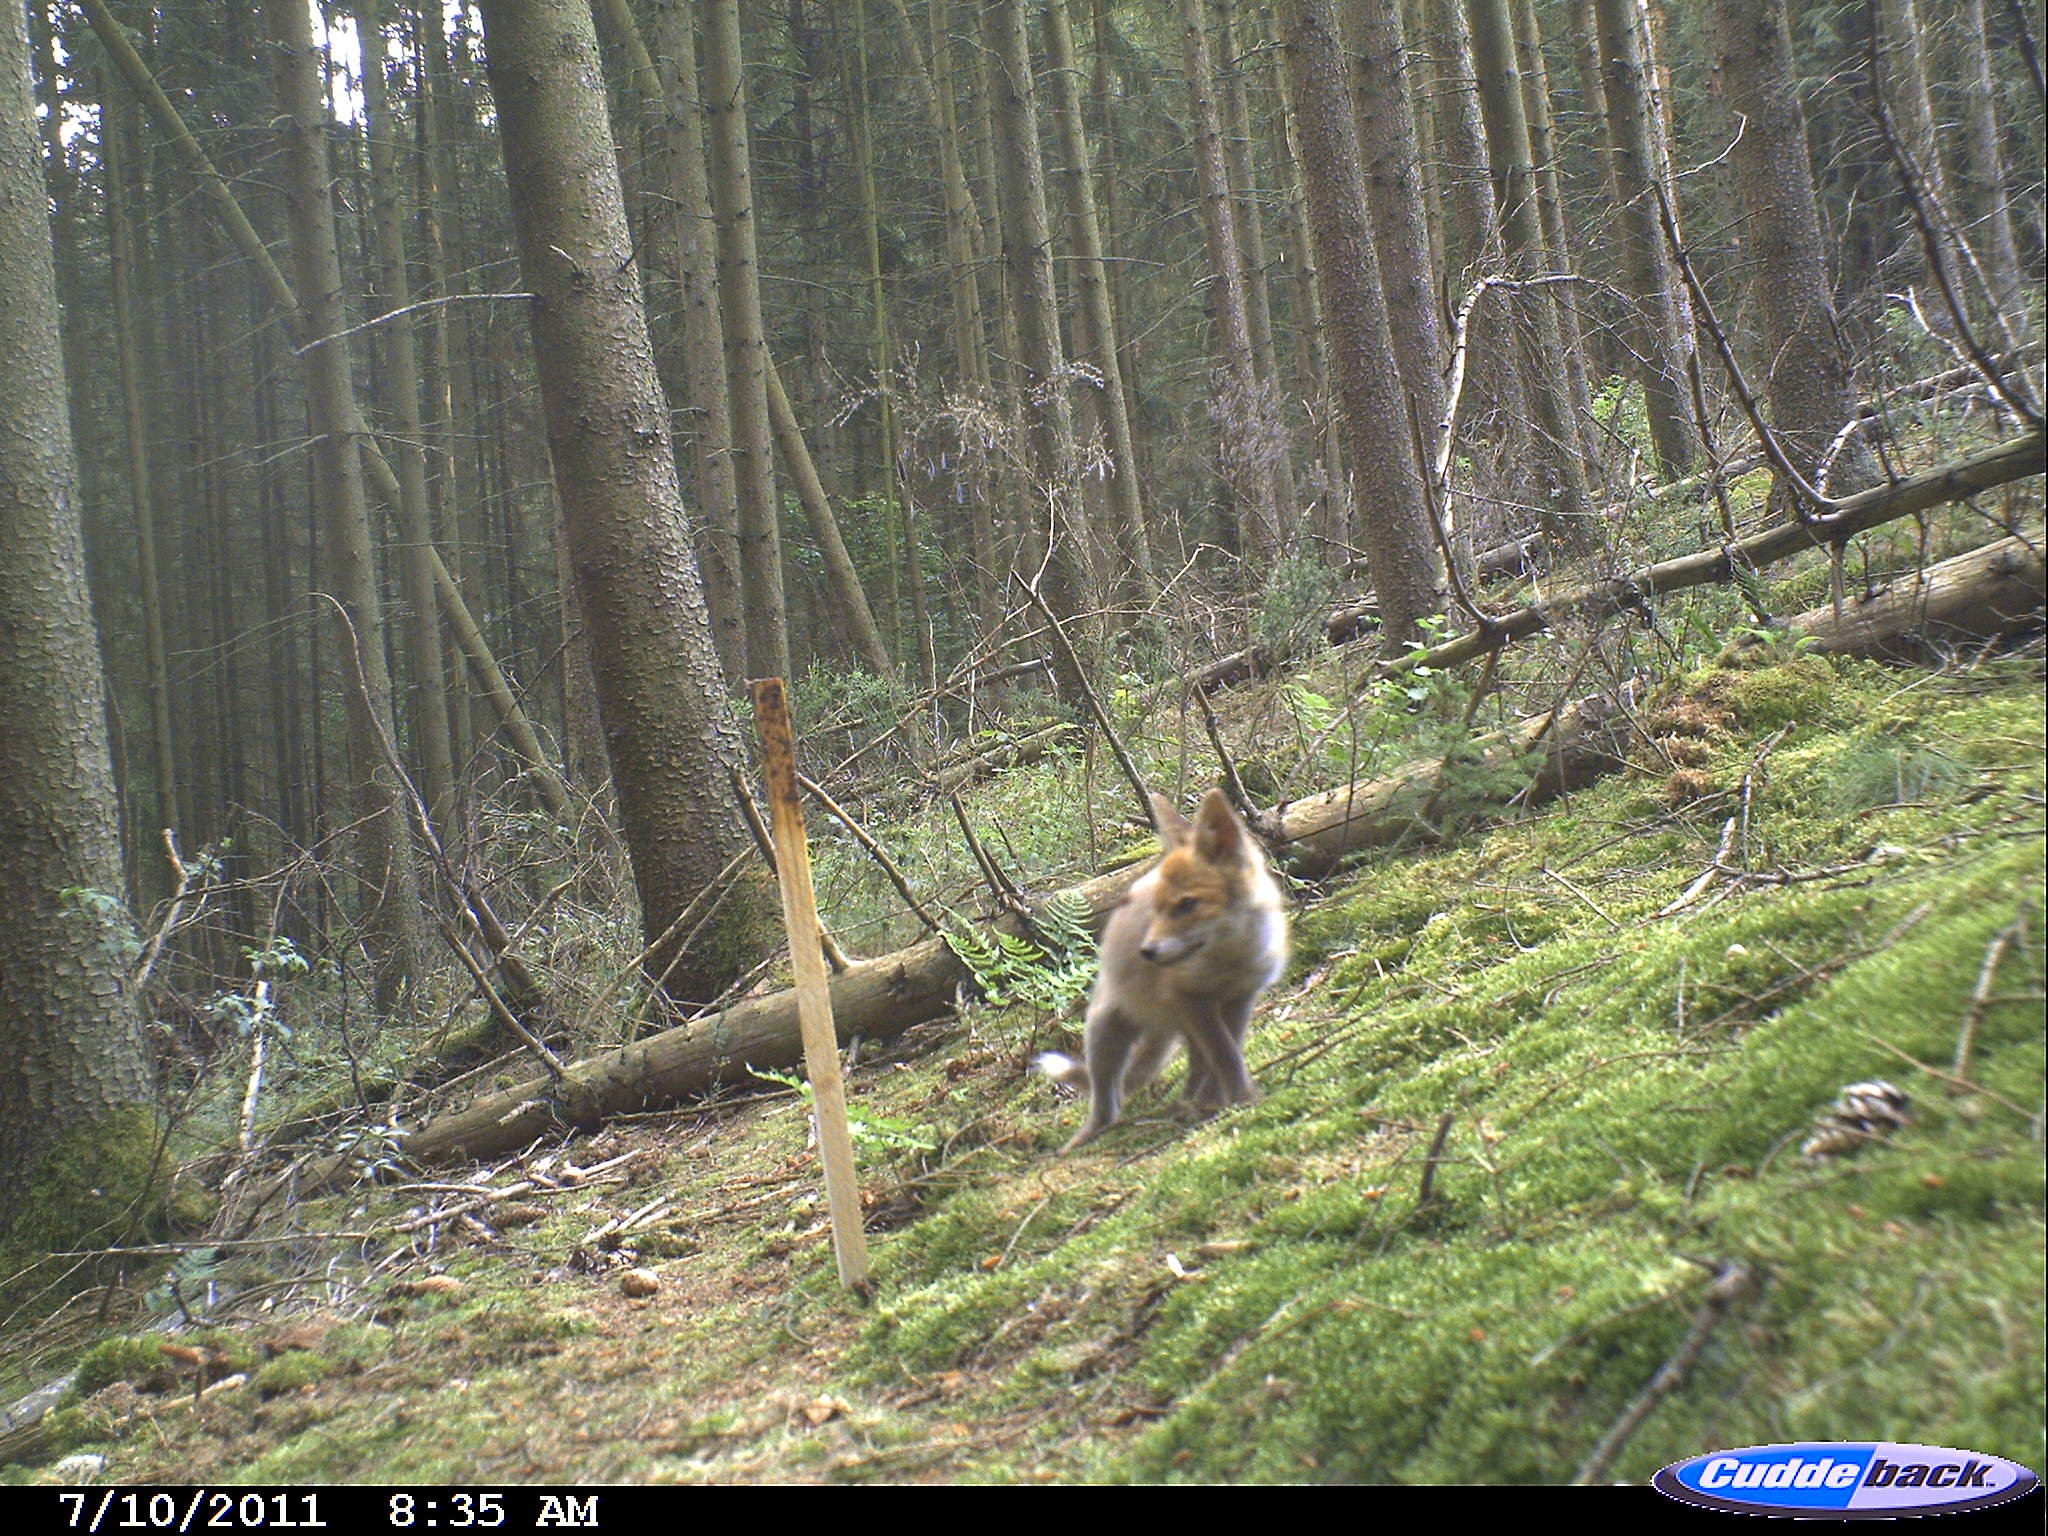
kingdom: Animalia
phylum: Chordata
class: Mammalia
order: Carnivora
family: Canidae
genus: Vulpes
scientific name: Vulpes vulpes
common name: Red fox
